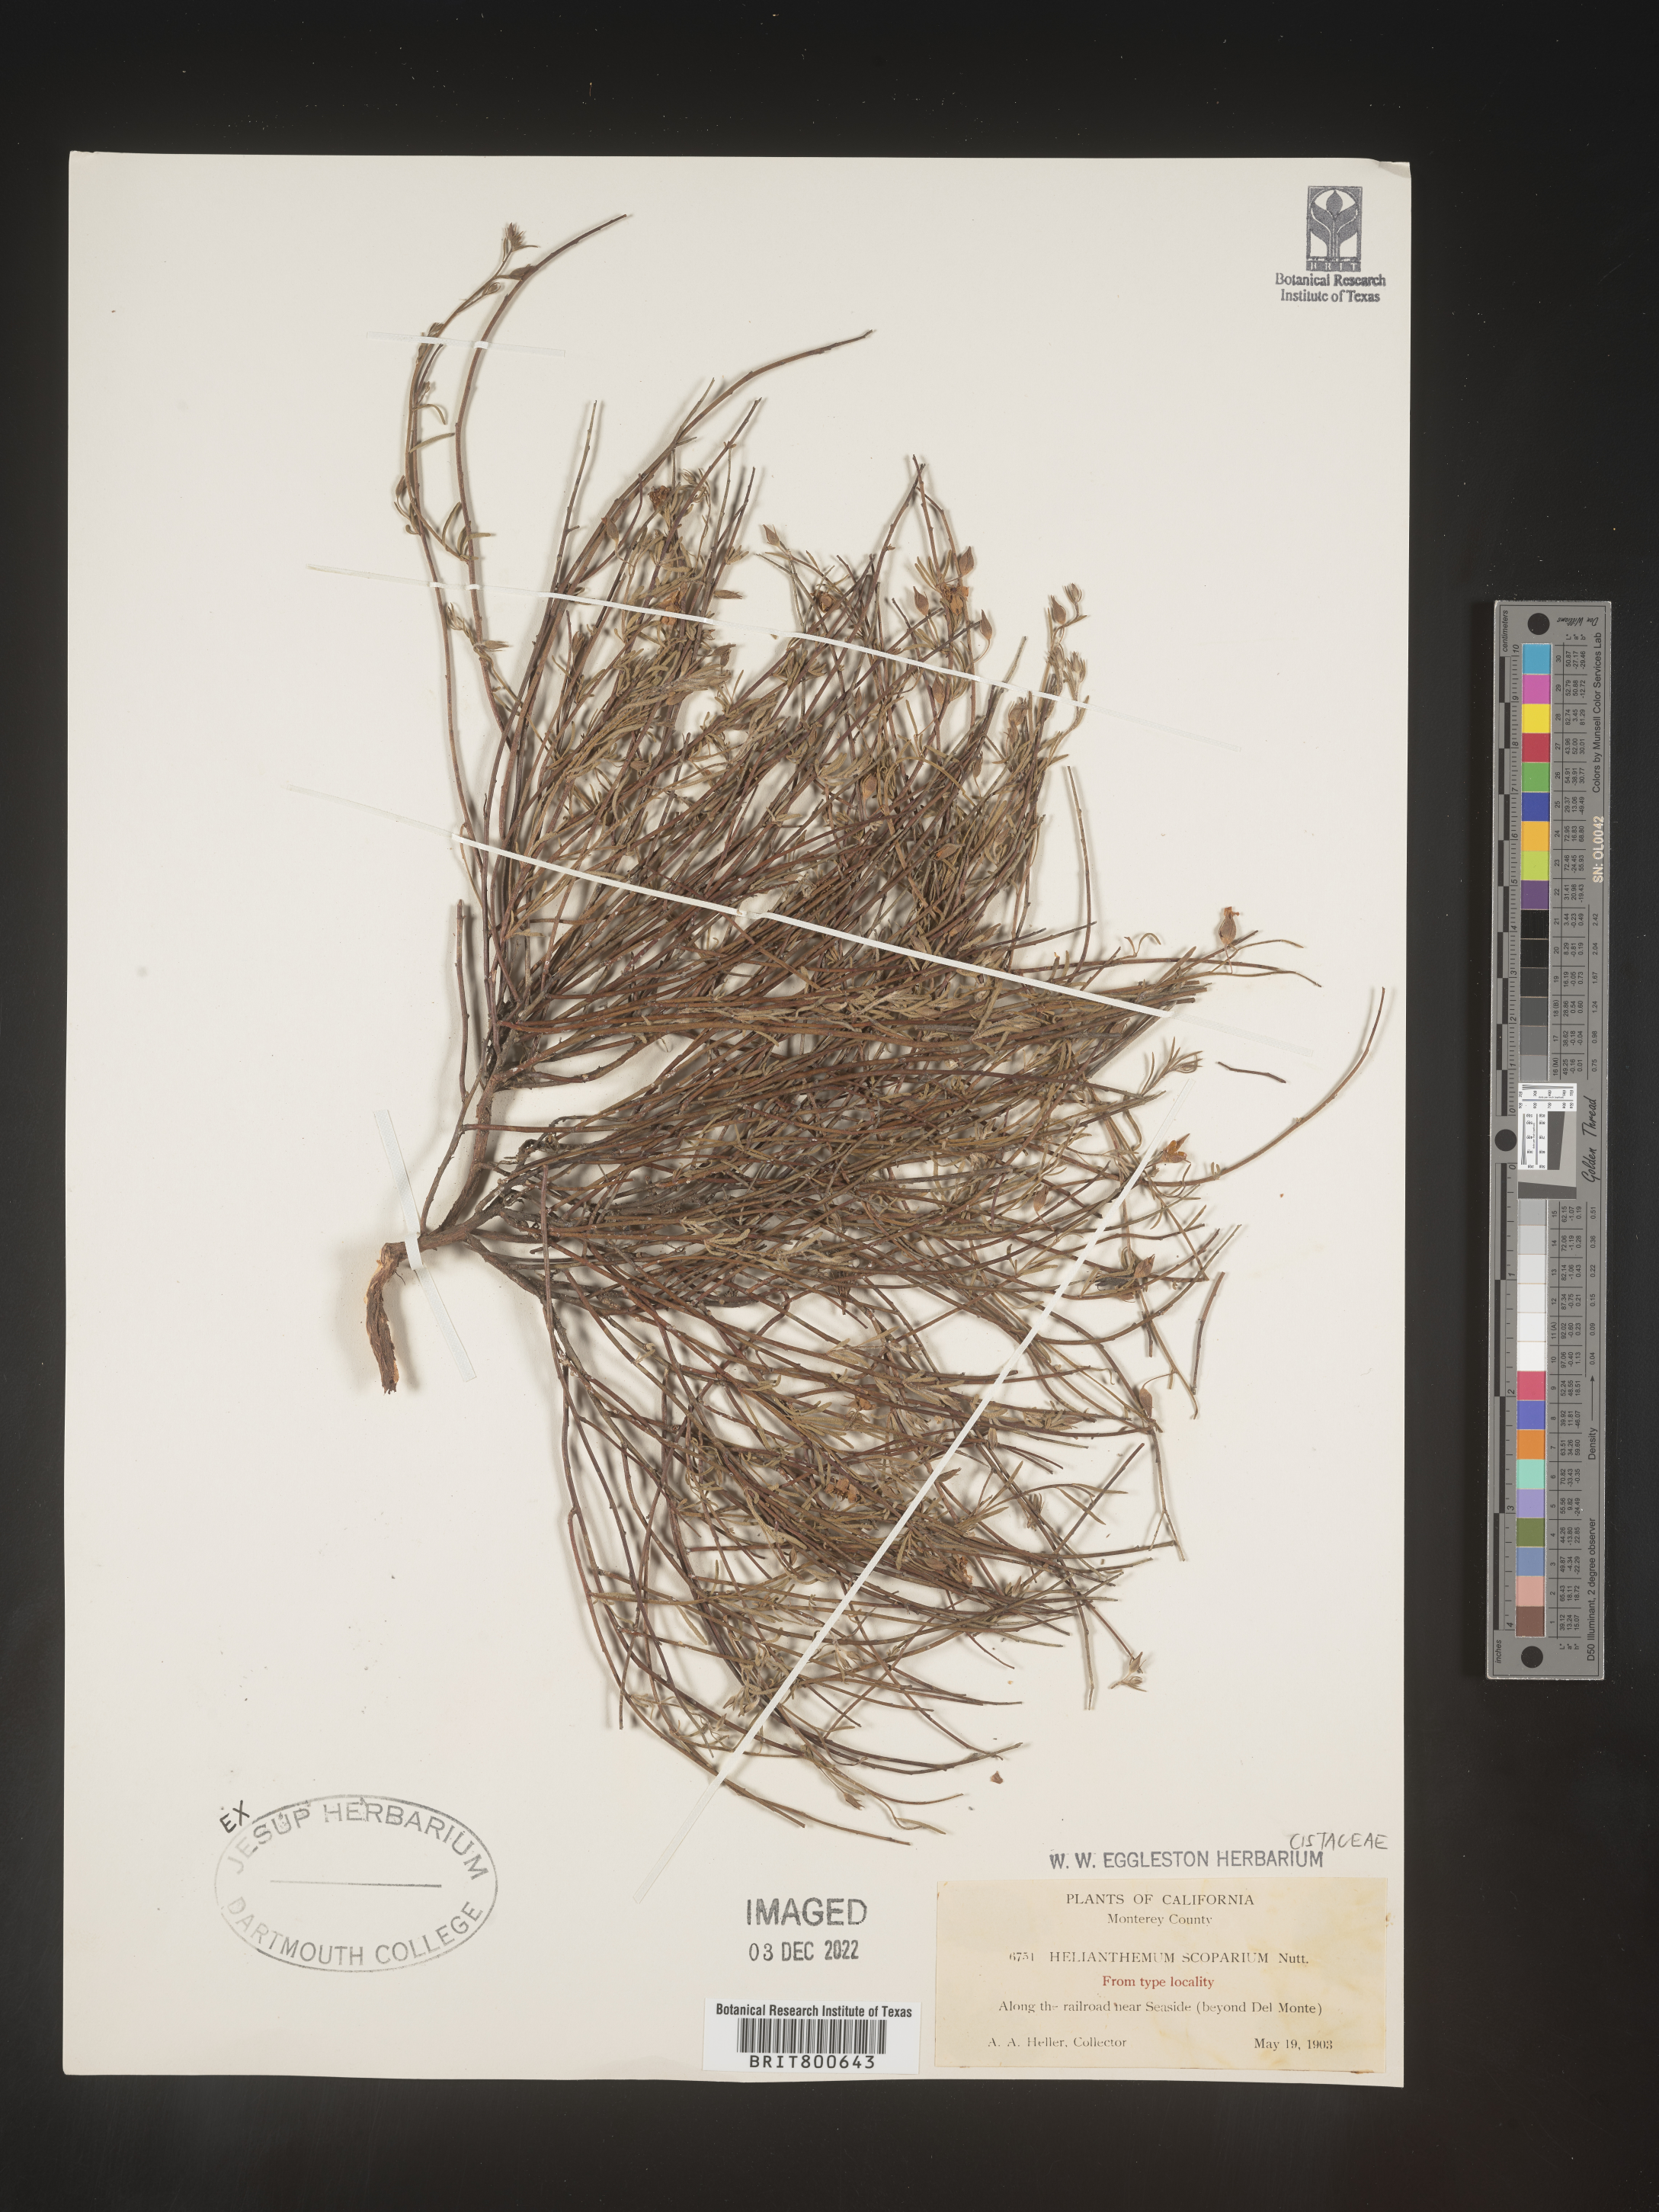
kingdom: Plantae
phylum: Tracheophyta
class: Magnoliopsida
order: Malvales
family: Cistaceae
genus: Helianthemum
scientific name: Helianthemum
